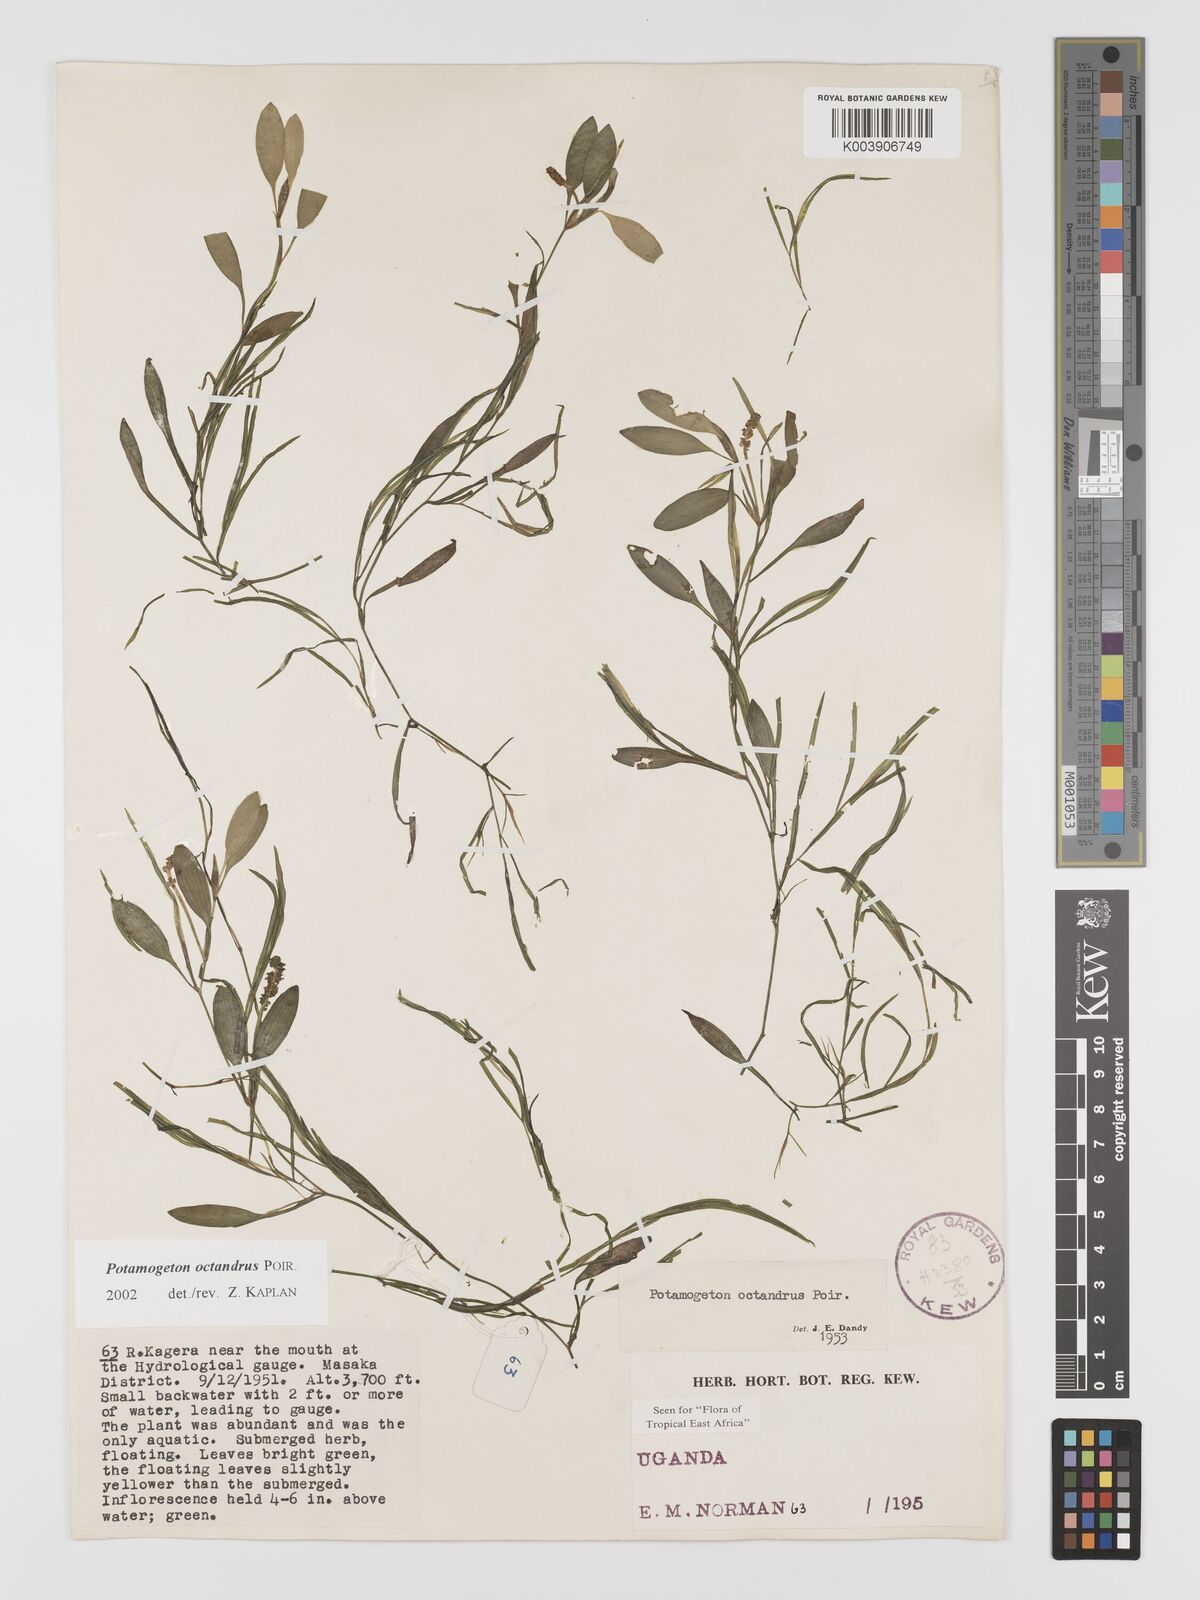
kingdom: Plantae
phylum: Tracheophyta
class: Liliopsida
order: Alismatales
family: Potamogetonaceae
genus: Potamogeton
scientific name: Potamogeton octandrus
